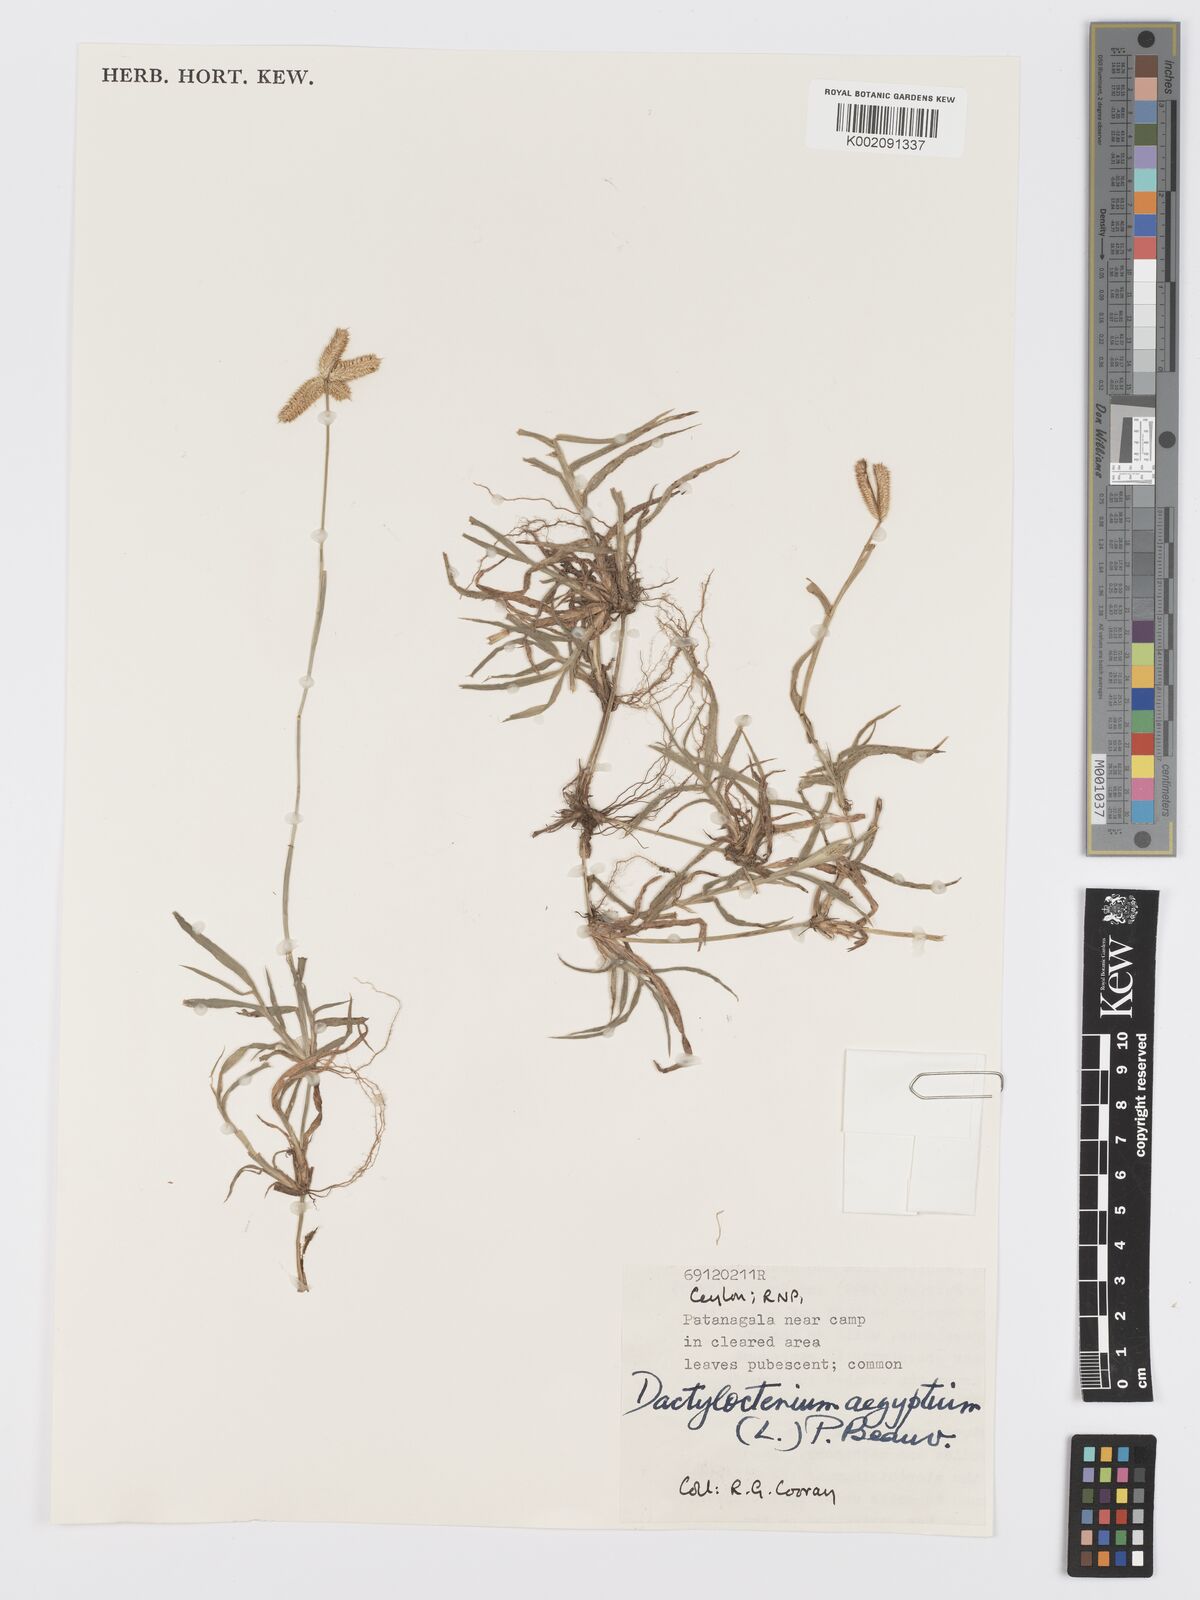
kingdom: Plantae
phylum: Tracheophyta
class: Liliopsida
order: Poales
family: Poaceae
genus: Dactyloctenium
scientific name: Dactyloctenium aegyptium
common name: Egyptian grass
